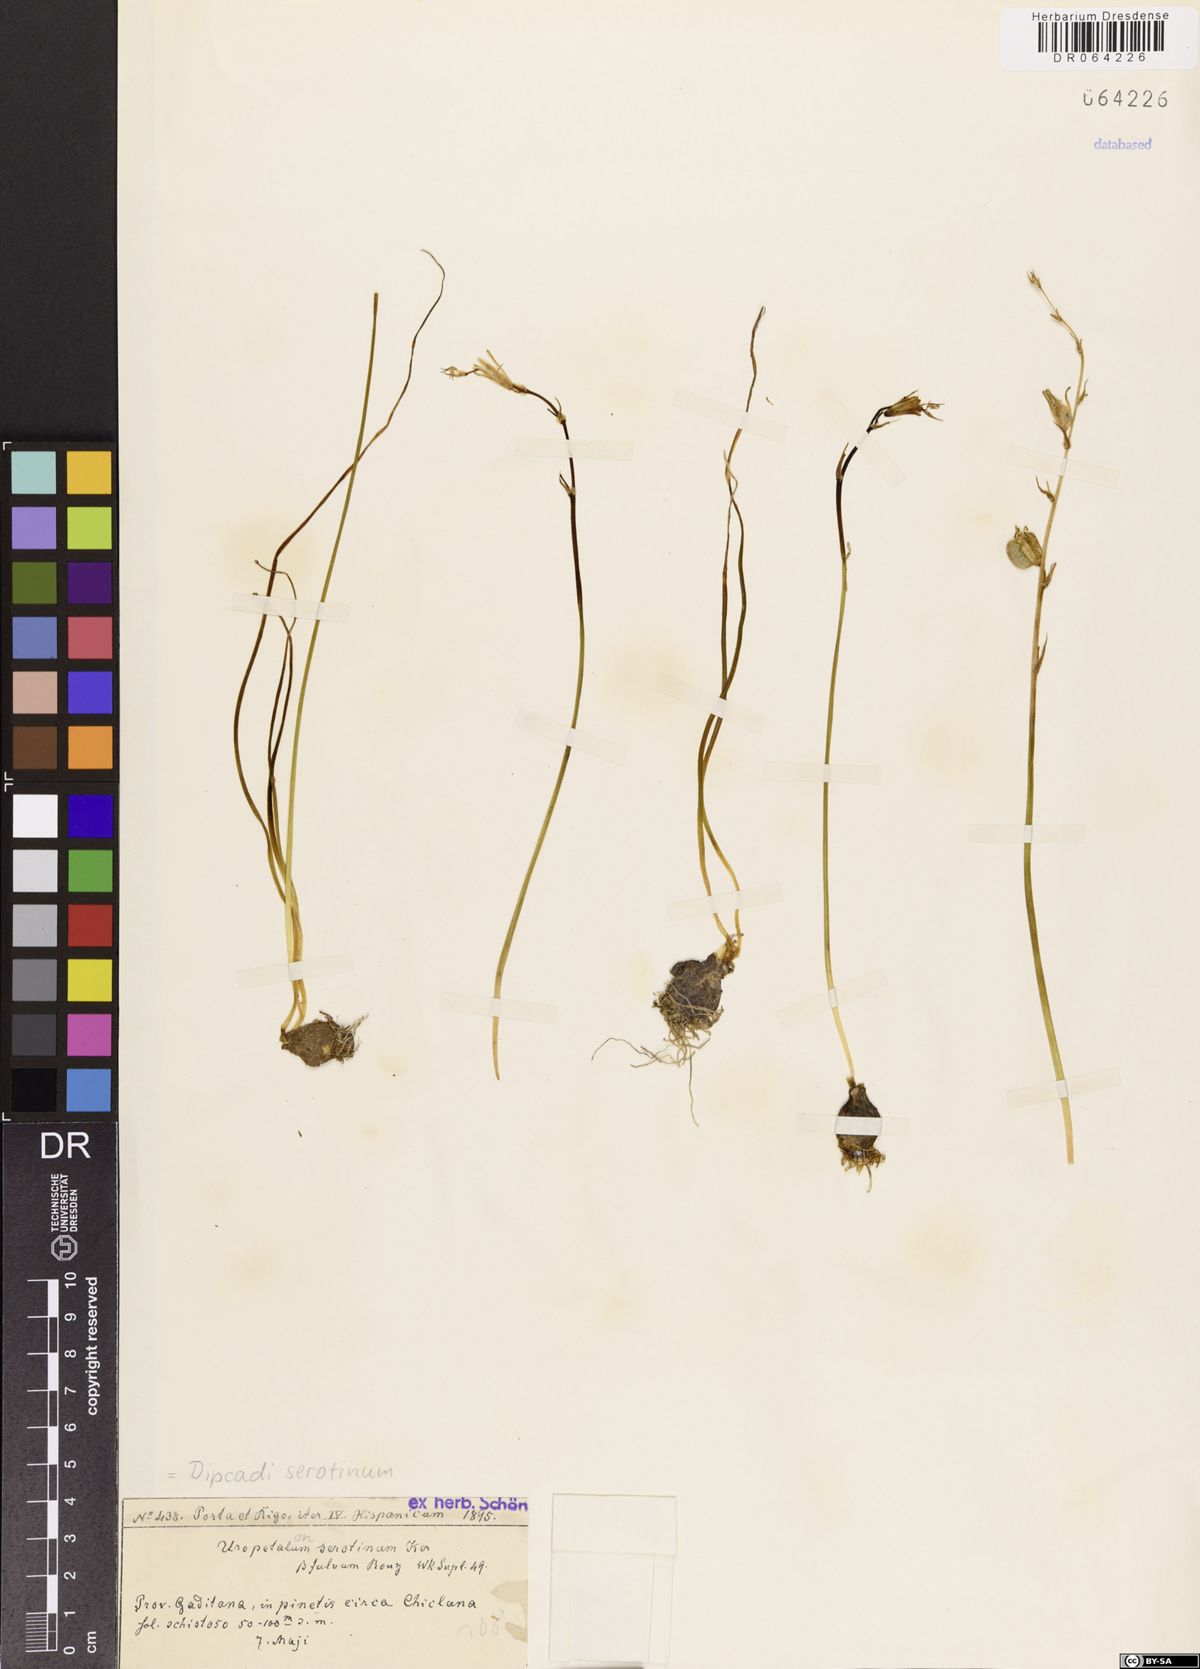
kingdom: Plantae
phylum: Tracheophyta
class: Liliopsida
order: Asparagales
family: Asparagaceae
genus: Dipcadi
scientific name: Dipcadi serotinum
